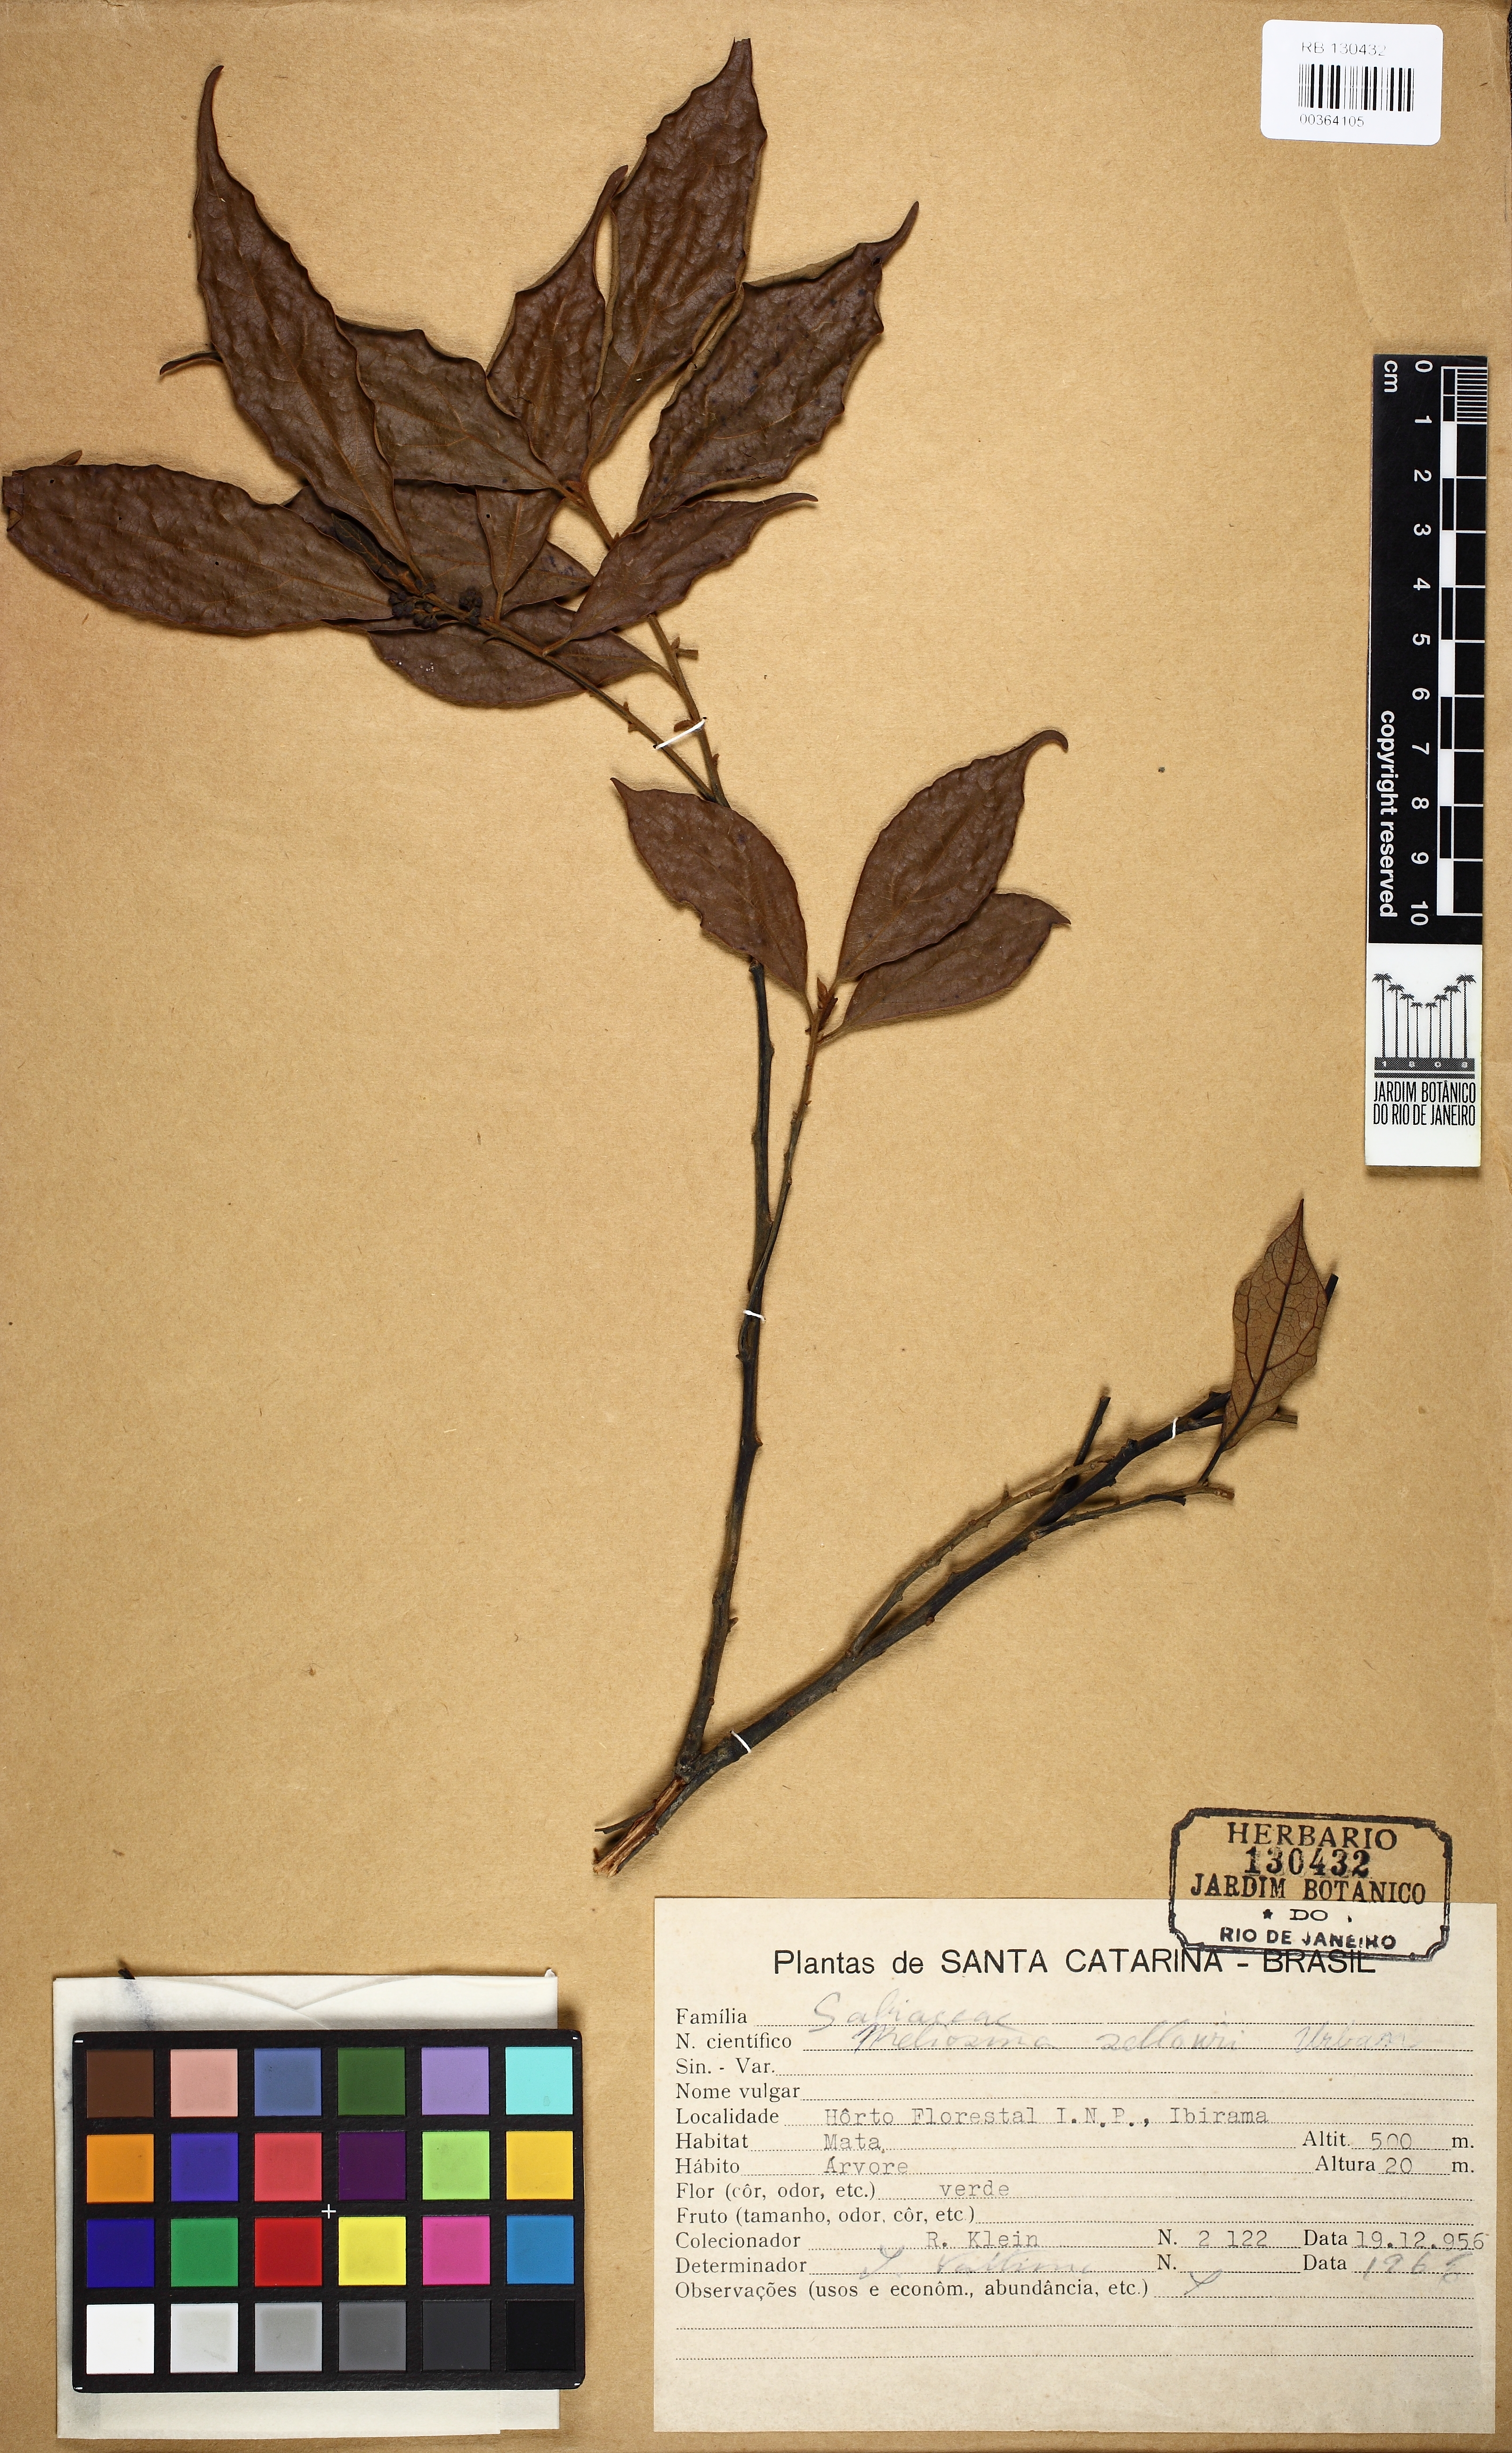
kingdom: Plantae
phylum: Tracheophyta
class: Magnoliopsida
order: Proteales
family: Sabiaceae
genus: Meliosma
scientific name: Meliosma sellowii
